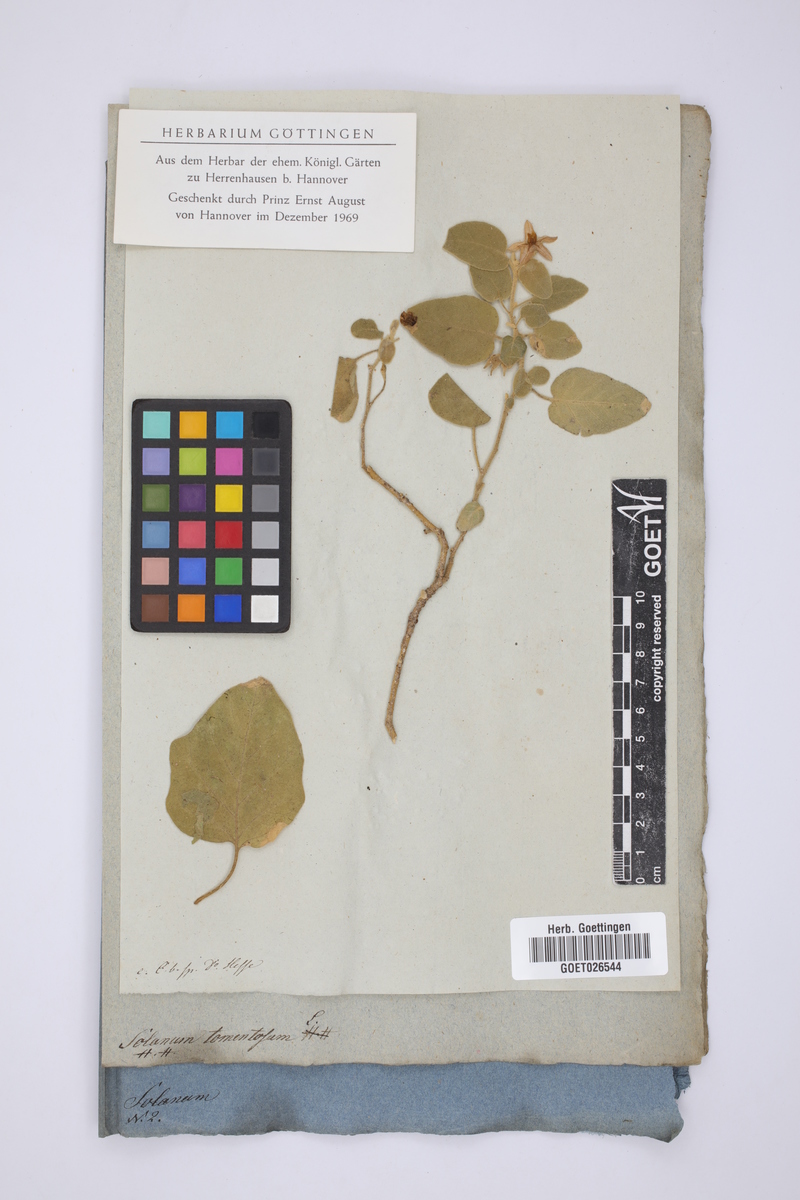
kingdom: Plantae
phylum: Tracheophyta
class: Magnoliopsida
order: Solanales
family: Solanaceae
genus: Solanum
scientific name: Solanum tomentosum
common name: Wild aubergine
